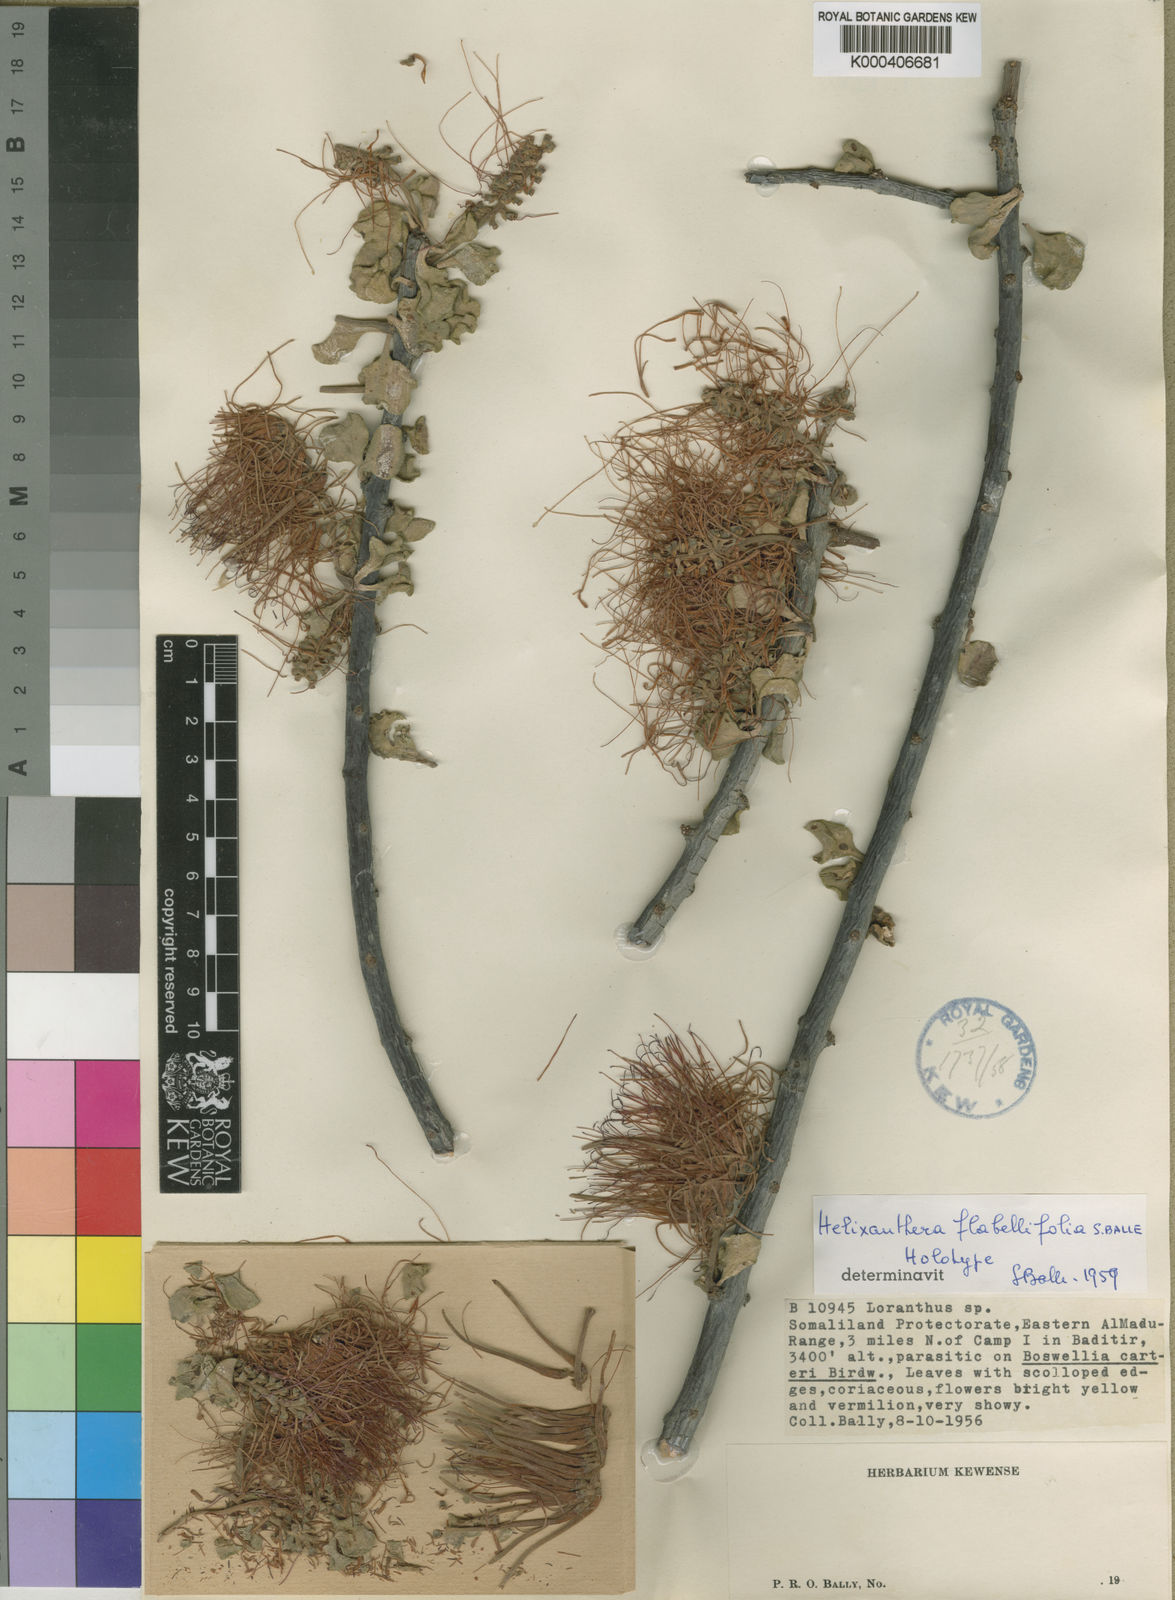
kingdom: Plantae
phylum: Tracheophyta
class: Magnoliopsida
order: Santalales
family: Loranthaceae
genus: Helixanthera
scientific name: Helixanthera flabellifolia
